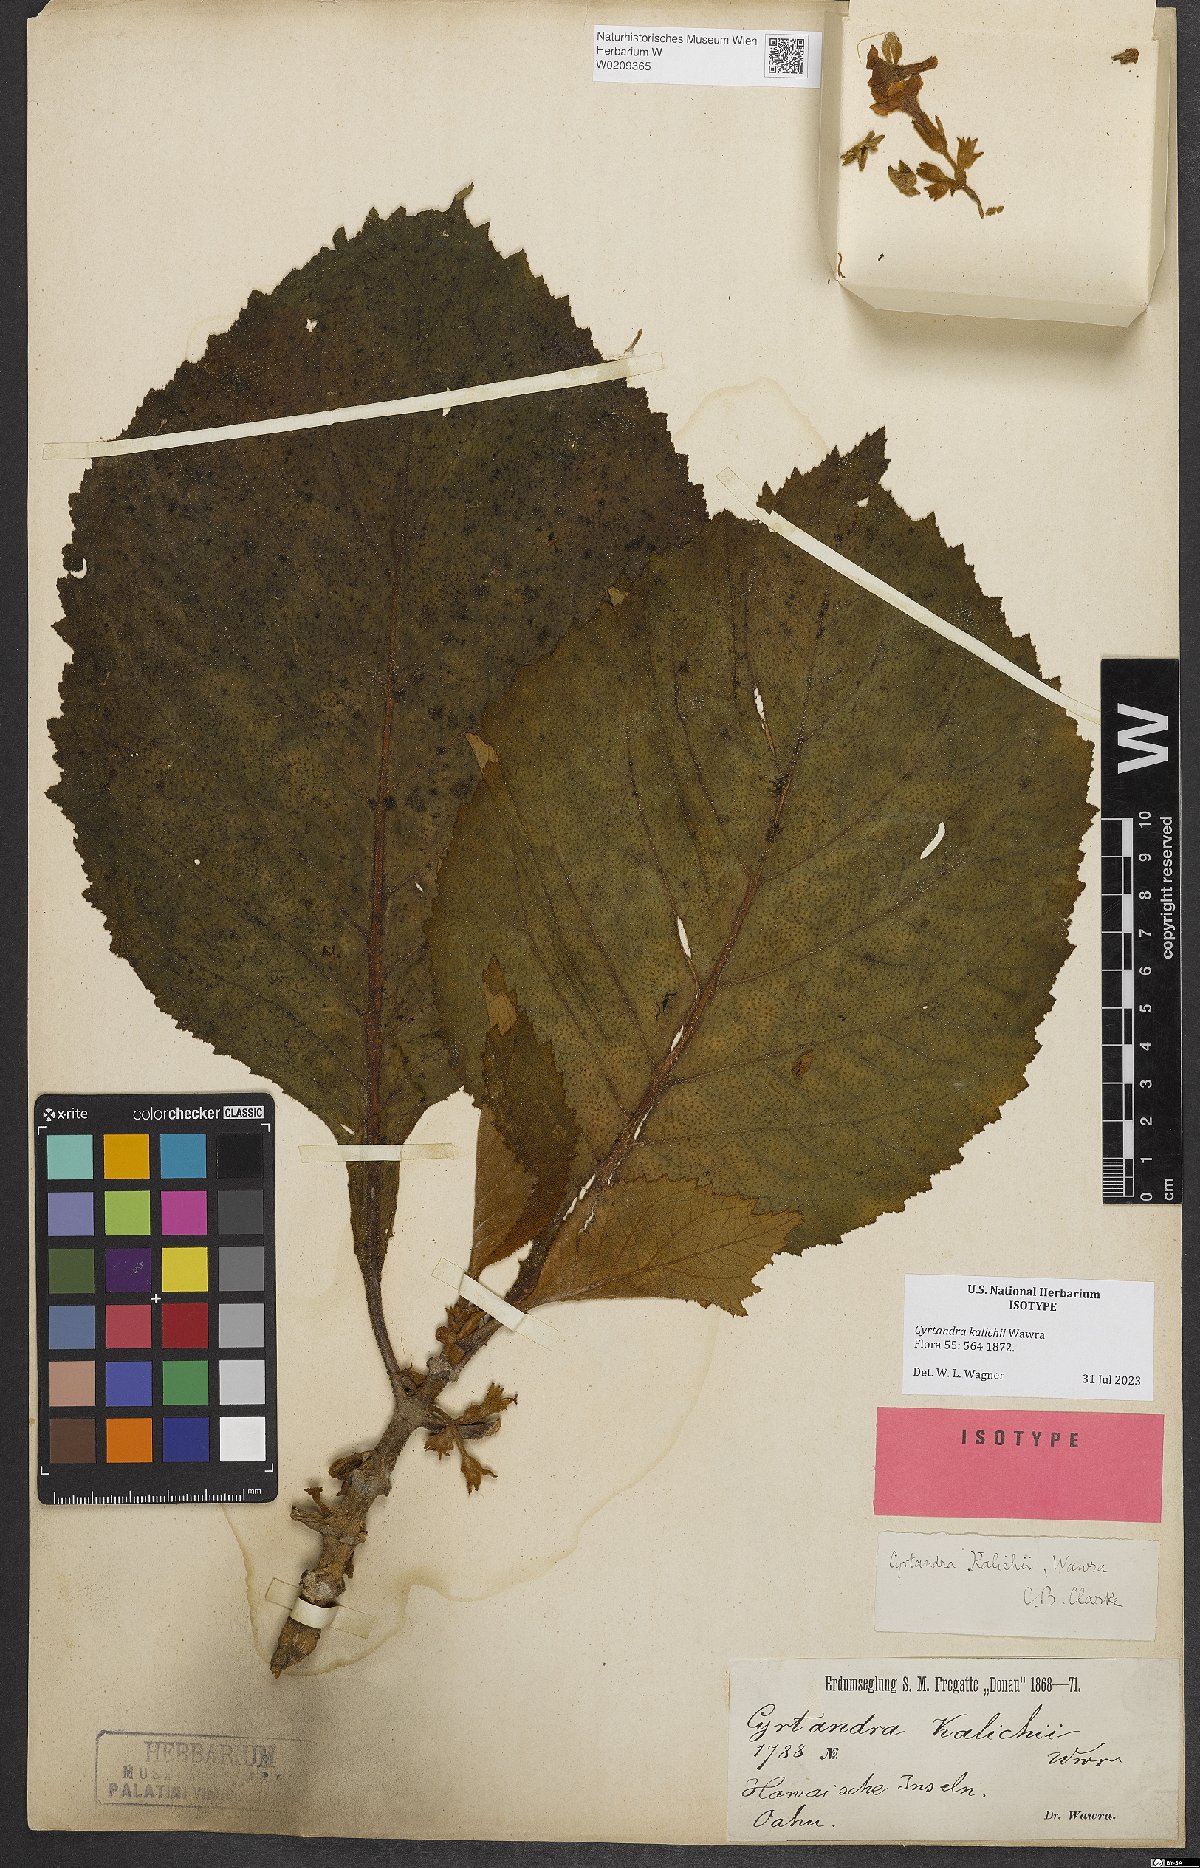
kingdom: Plantae
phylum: Tracheophyta
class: Magnoliopsida
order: Lamiales
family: Gesneriaceae
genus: Cyrtandra
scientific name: Cyrtandra kalichii
